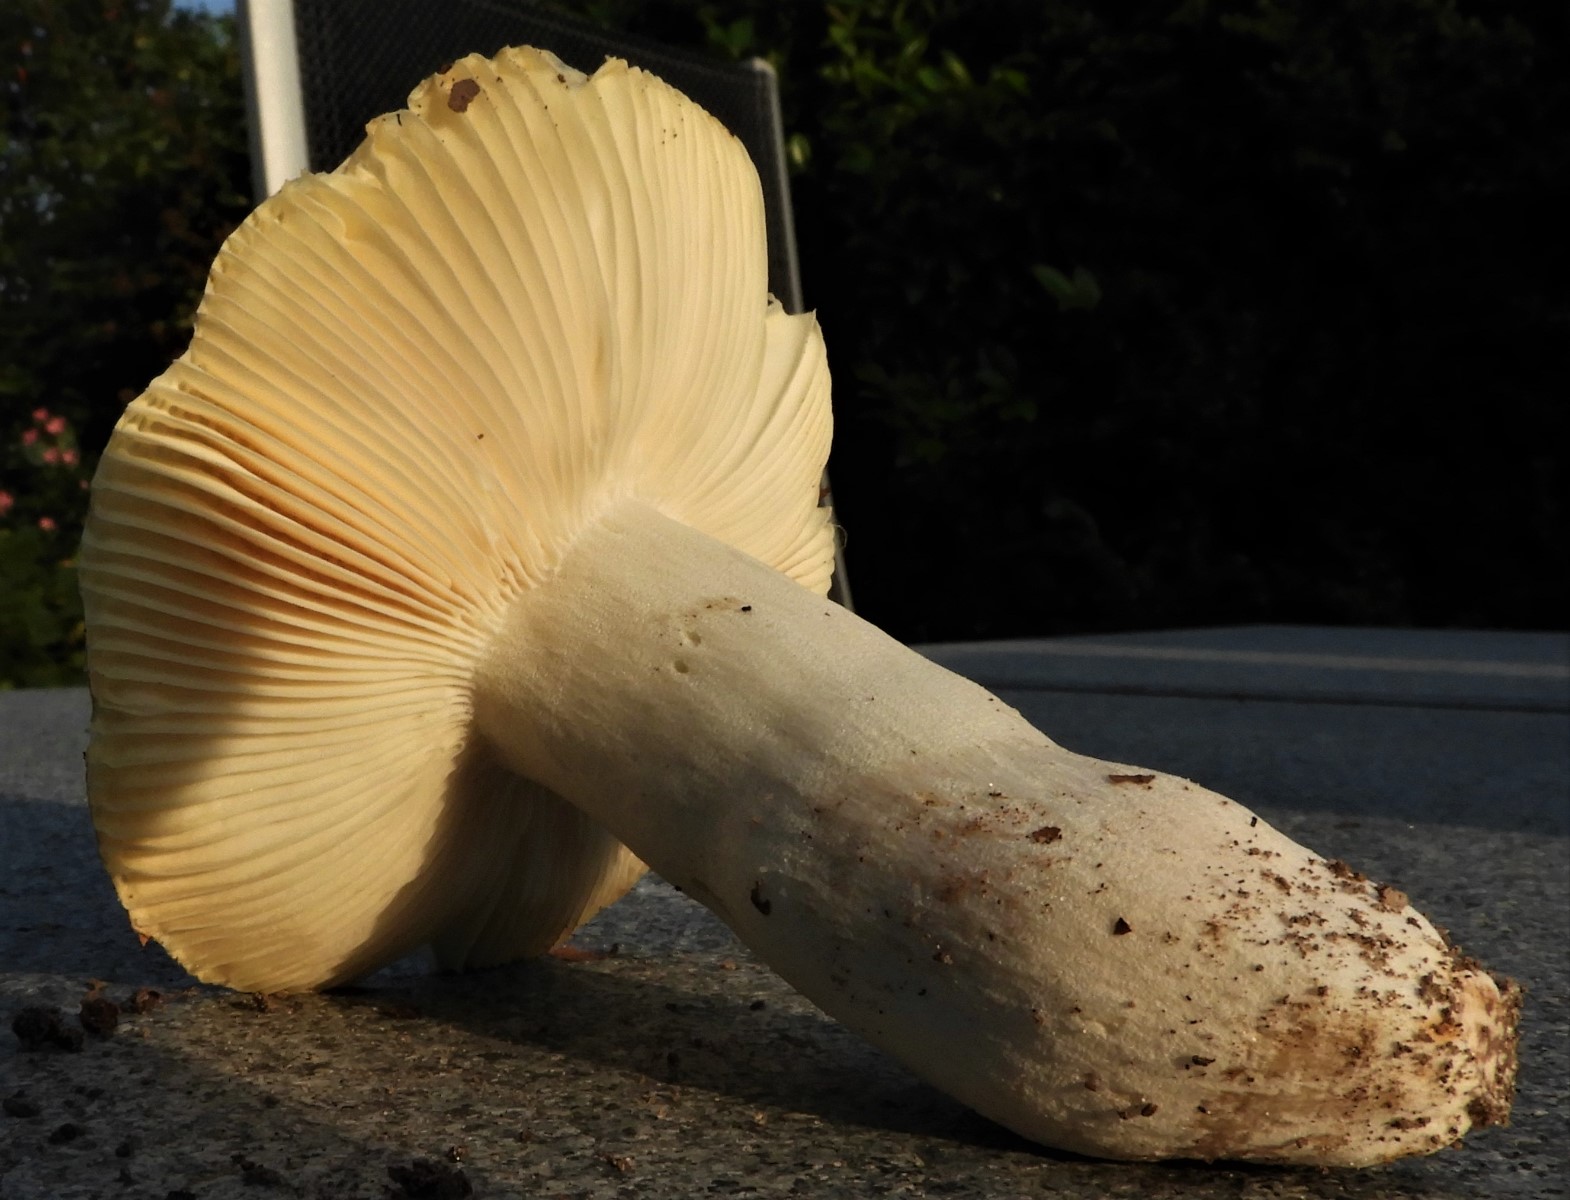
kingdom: Fungi
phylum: Basidiomycota
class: Agaricomycetes
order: Russulales
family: Russulaceae
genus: Russula
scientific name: Russula heterophylla
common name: gaffelbladet skørhat
